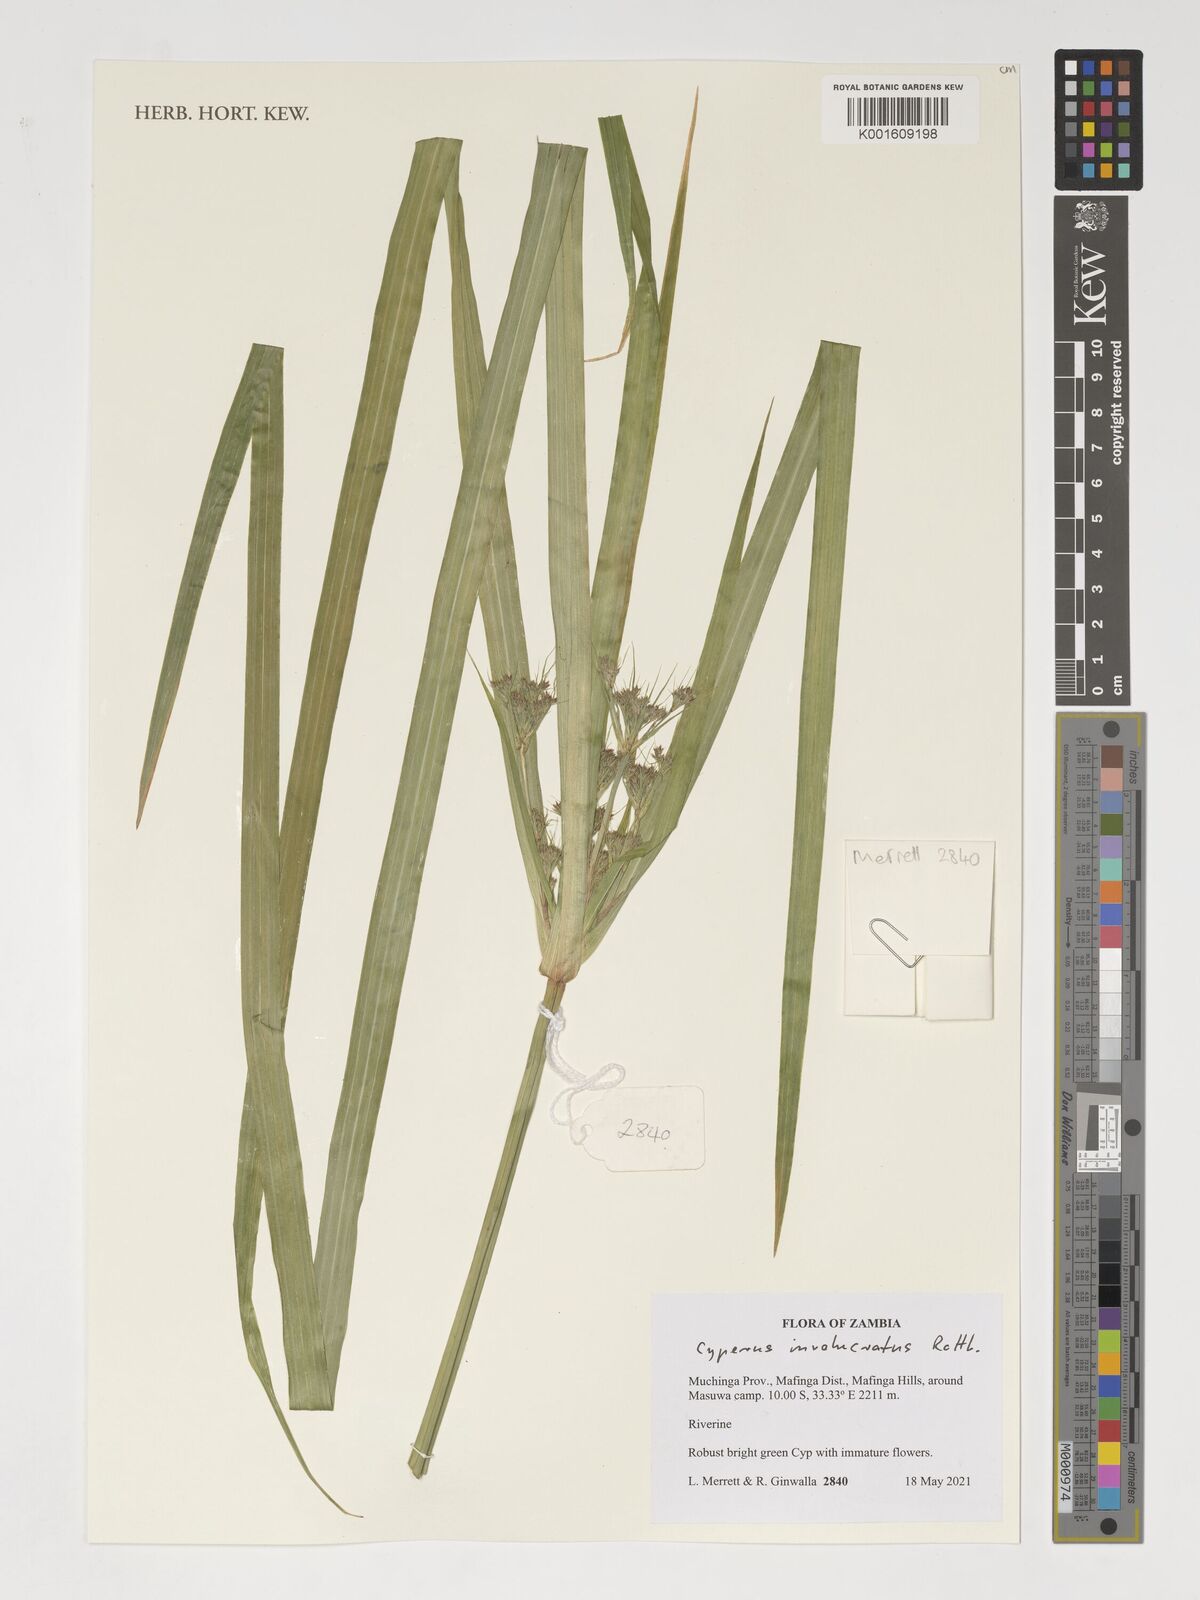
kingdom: Plantae
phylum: Tracheophyta
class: Liliopsida
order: Poales
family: Cyperaceae
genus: Cyperus
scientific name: Cyperus alternifolius
